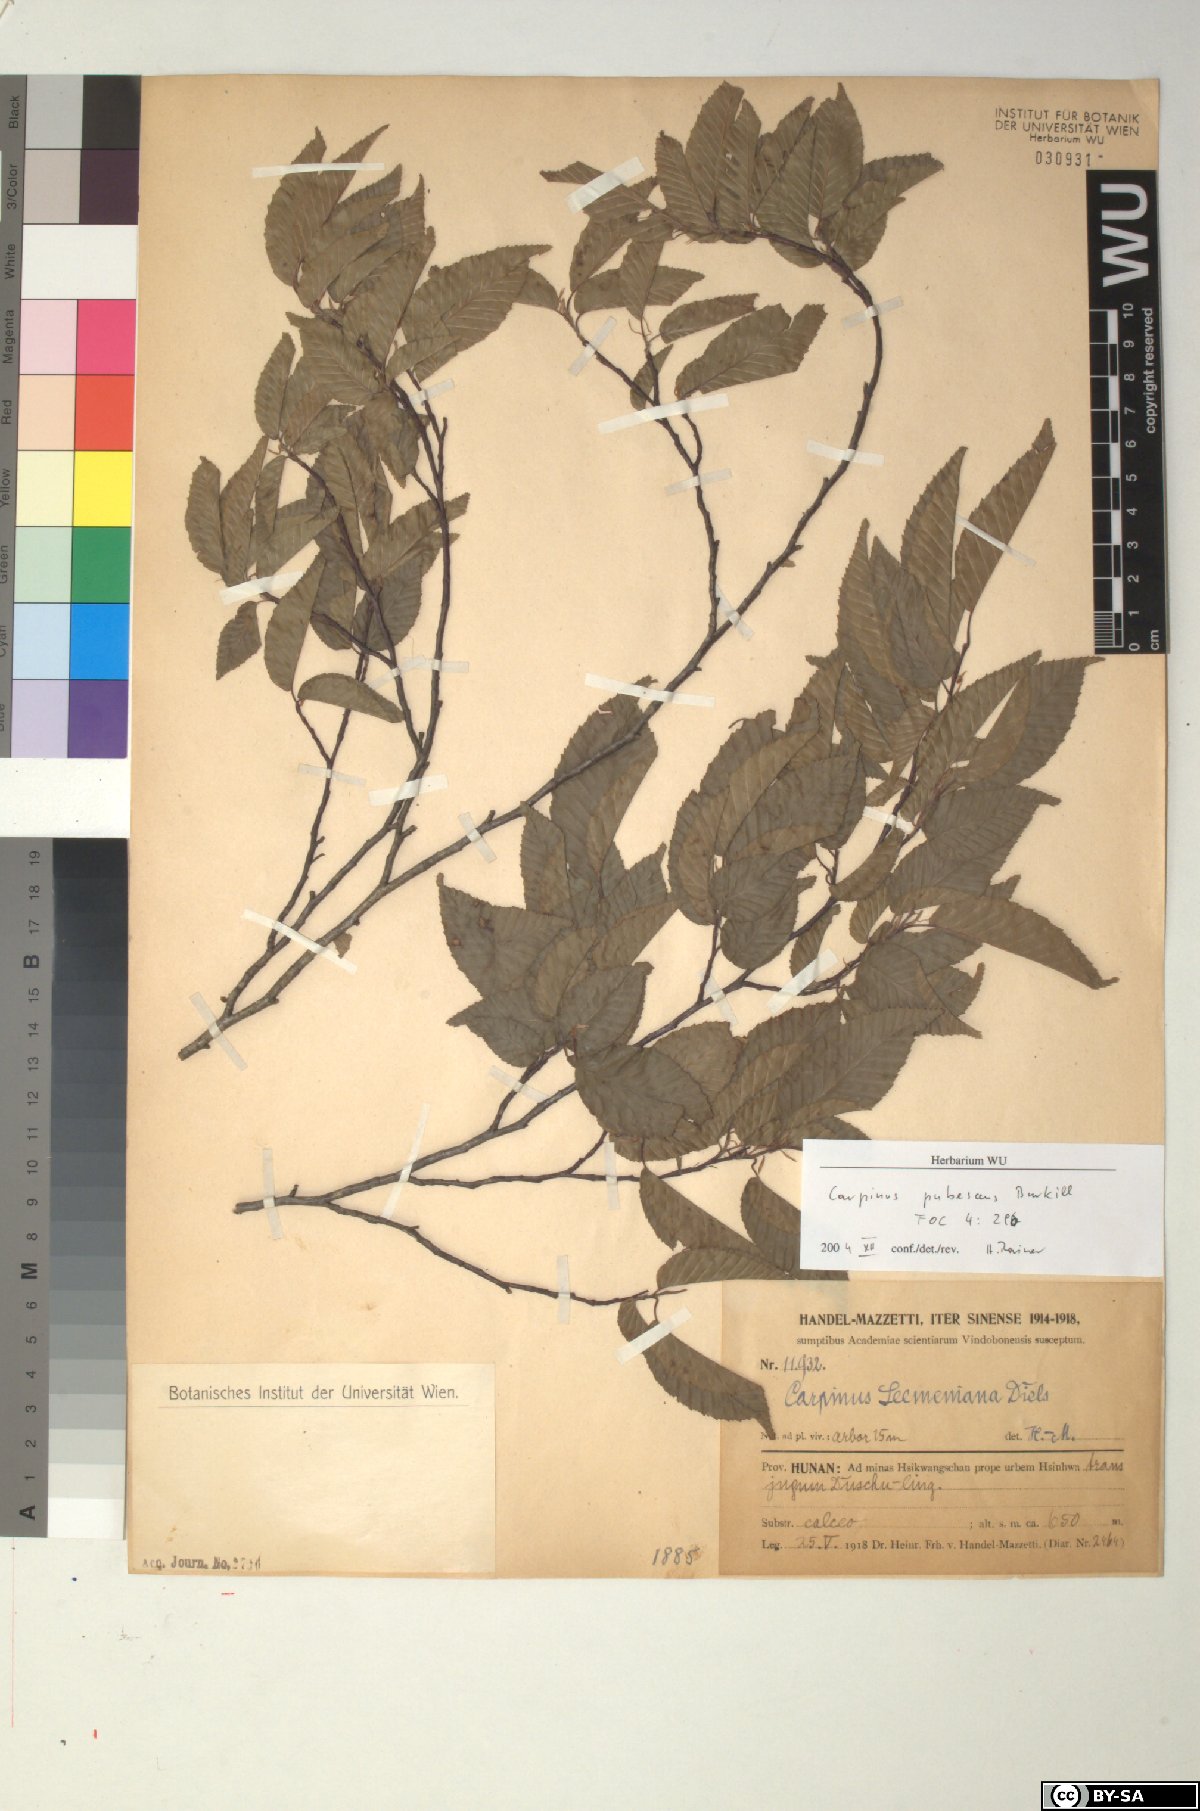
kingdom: Plantae
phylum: Tracheophyta
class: Magnoliopsida
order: Fagales
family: Betulaceae
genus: Carpinus
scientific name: Carpinus pubescens
